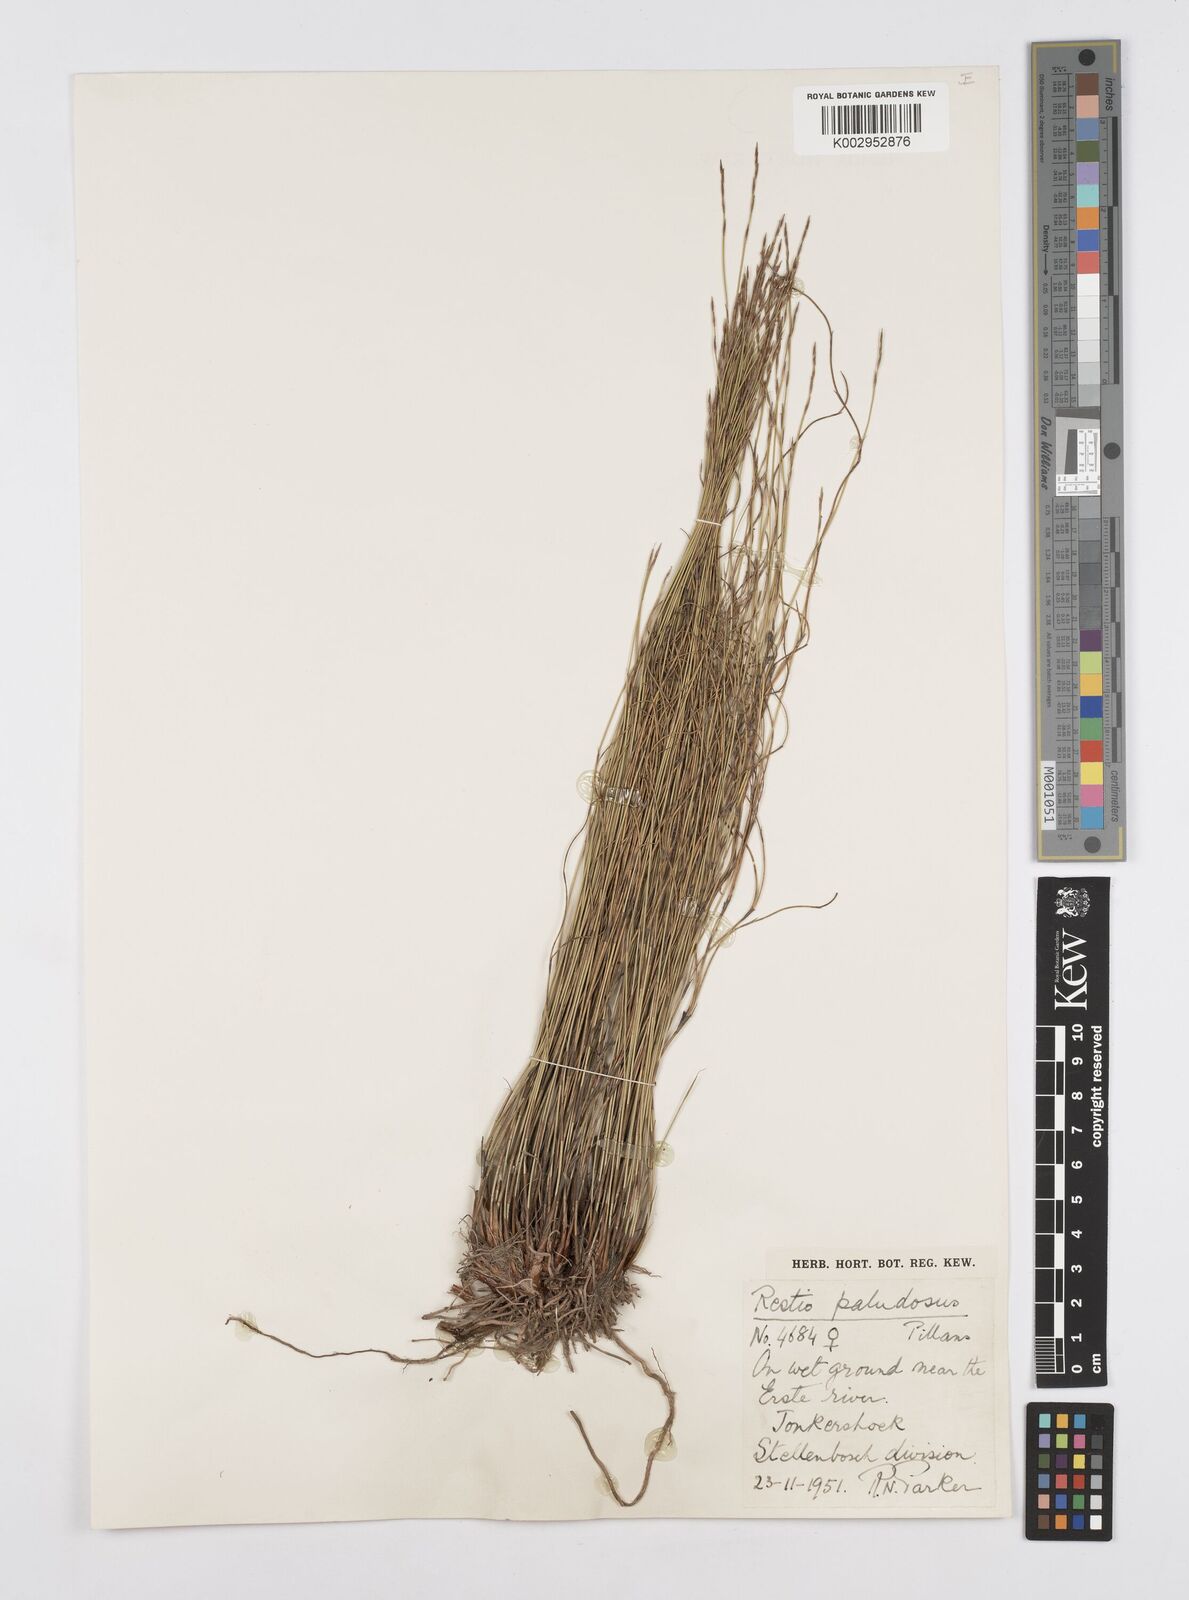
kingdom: Plantae
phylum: Tracheophyta
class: Liliopsida
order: Poales
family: Restionaceae
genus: Restio
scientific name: Restio paludosus
